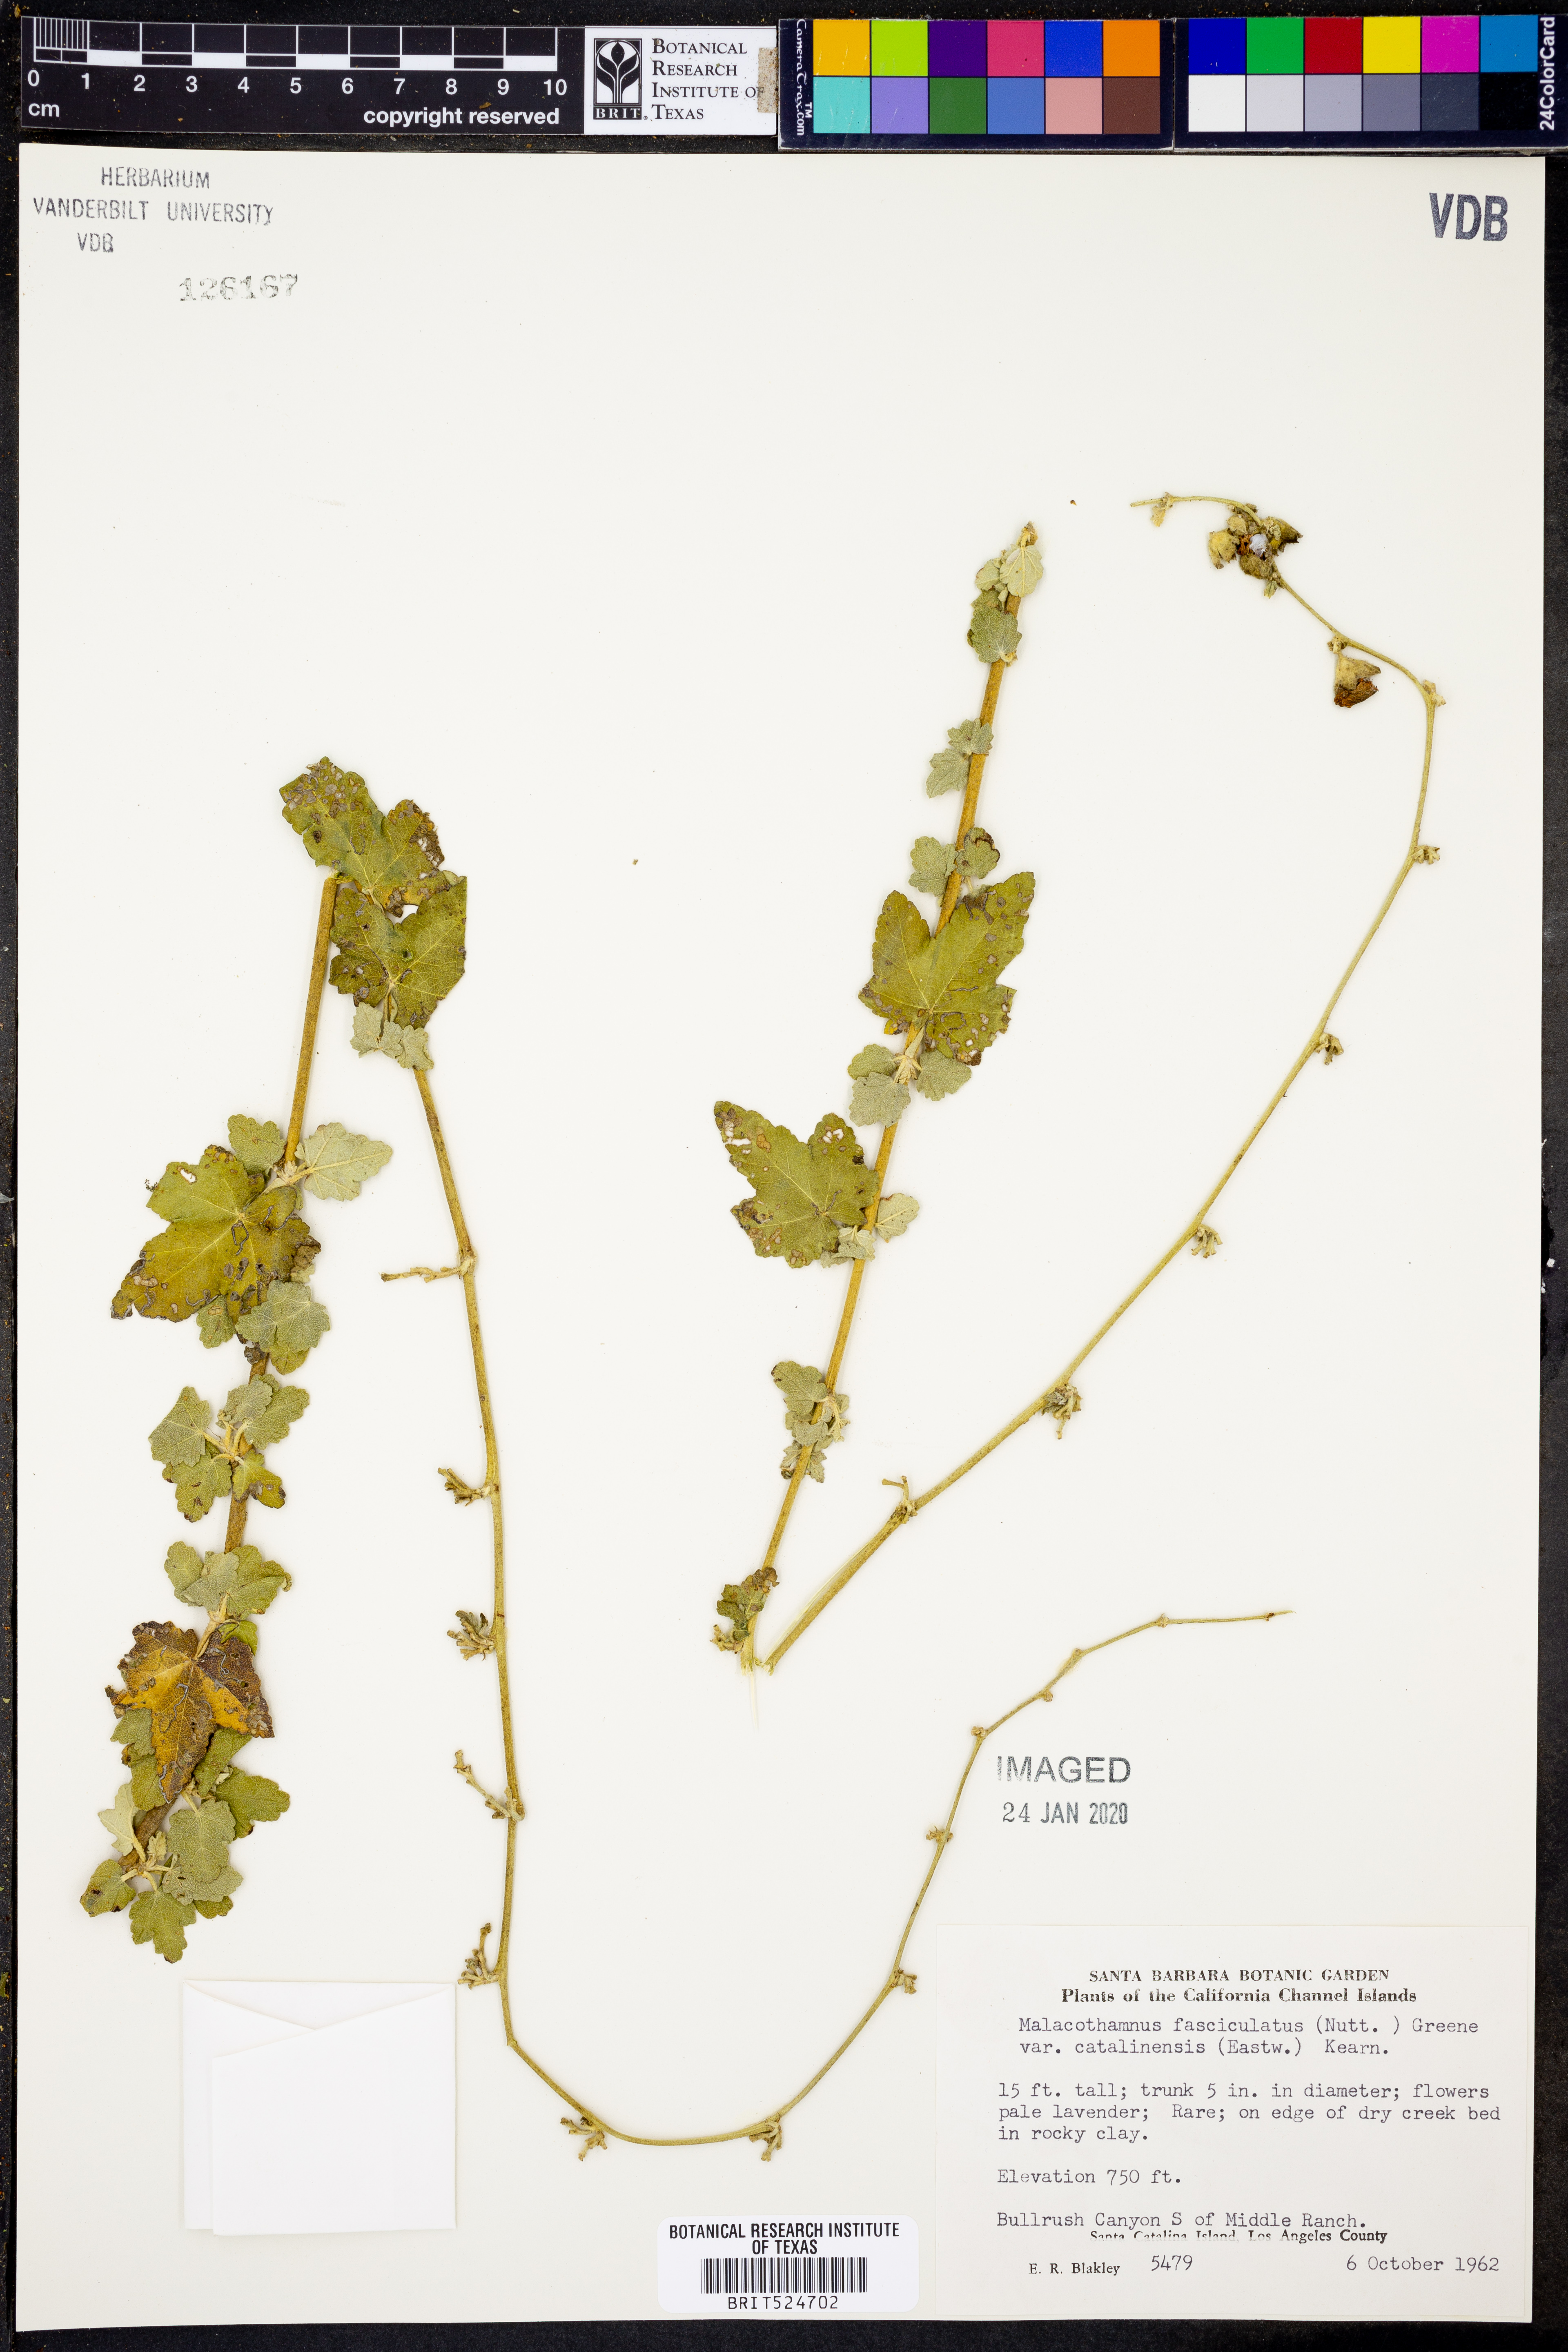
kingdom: Plantae
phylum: Tracheophyta
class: Magnoliopsida
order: Malvales
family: Malvaceae
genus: Malacothamnus
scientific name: Malacothamnus fasciculatus
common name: Sant cruz island bush-mallow
